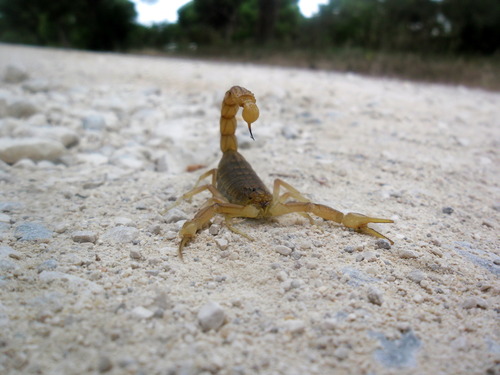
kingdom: Animalia
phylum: Arthropoda
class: Arachnida
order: Scorpiones
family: Buthidae
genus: Buthus
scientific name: Buthus ibericus
